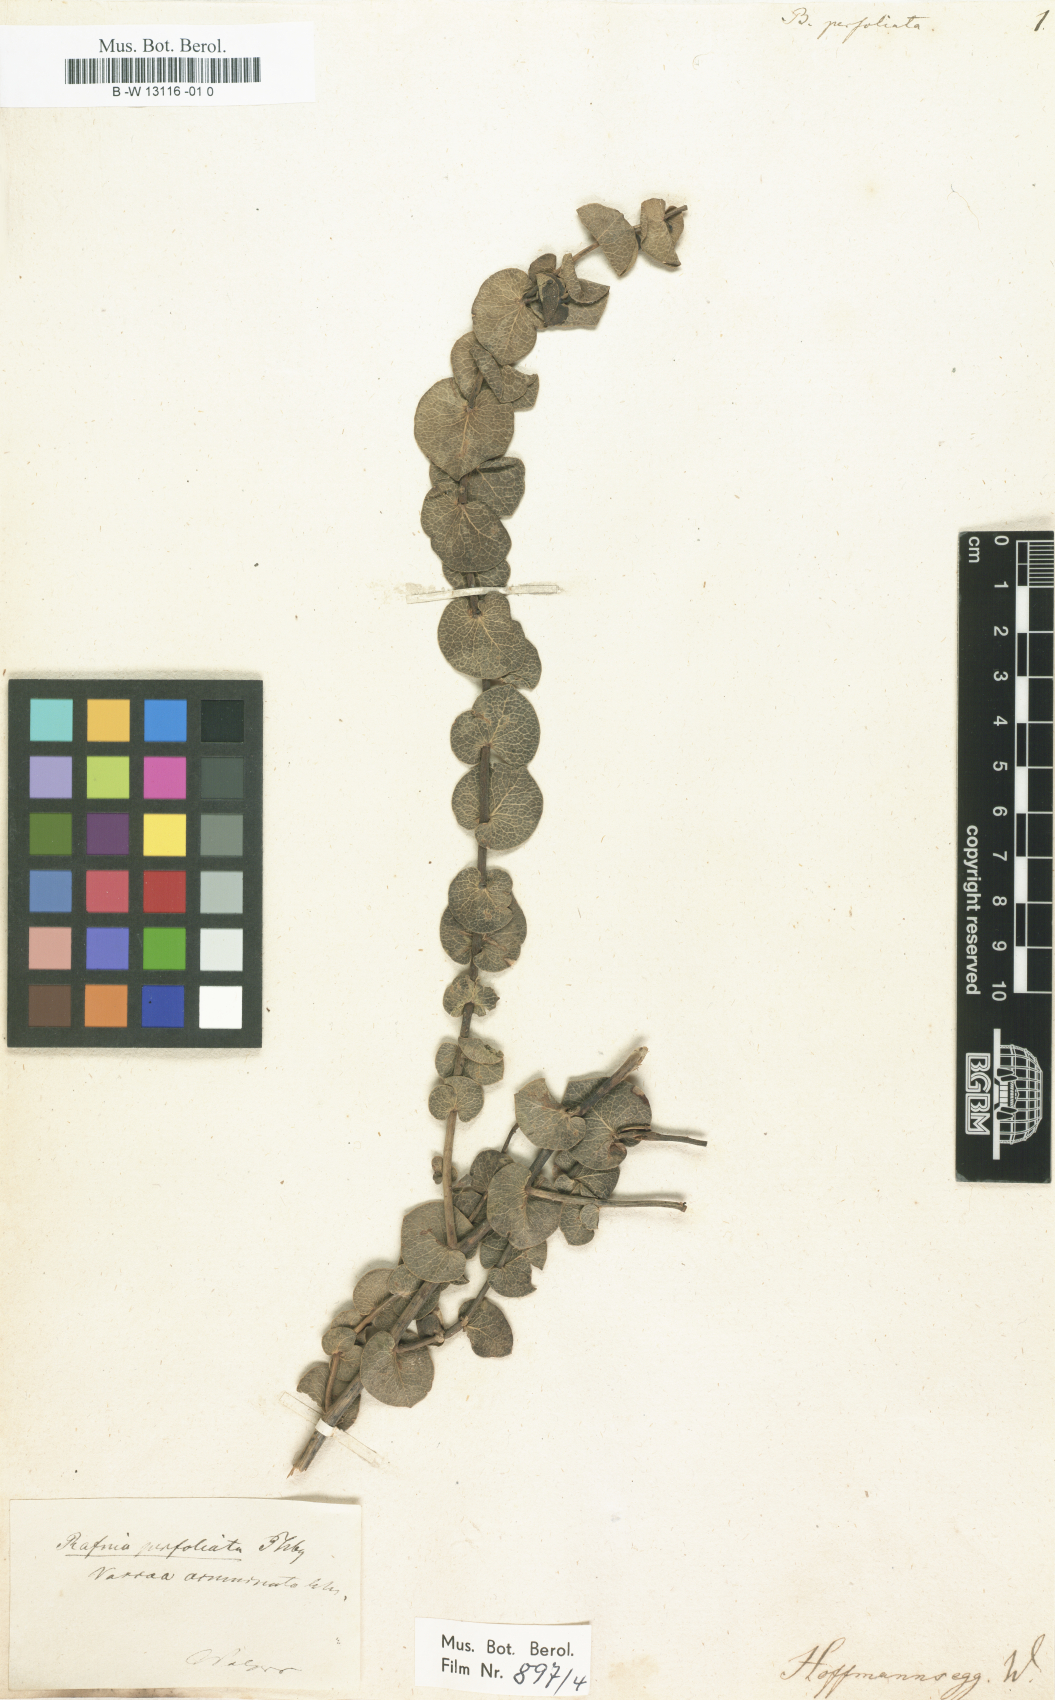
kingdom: Plantae
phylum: Tracheophyta
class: Magnoliopsida
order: Fabales
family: Fabaceae
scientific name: Fabaceae
